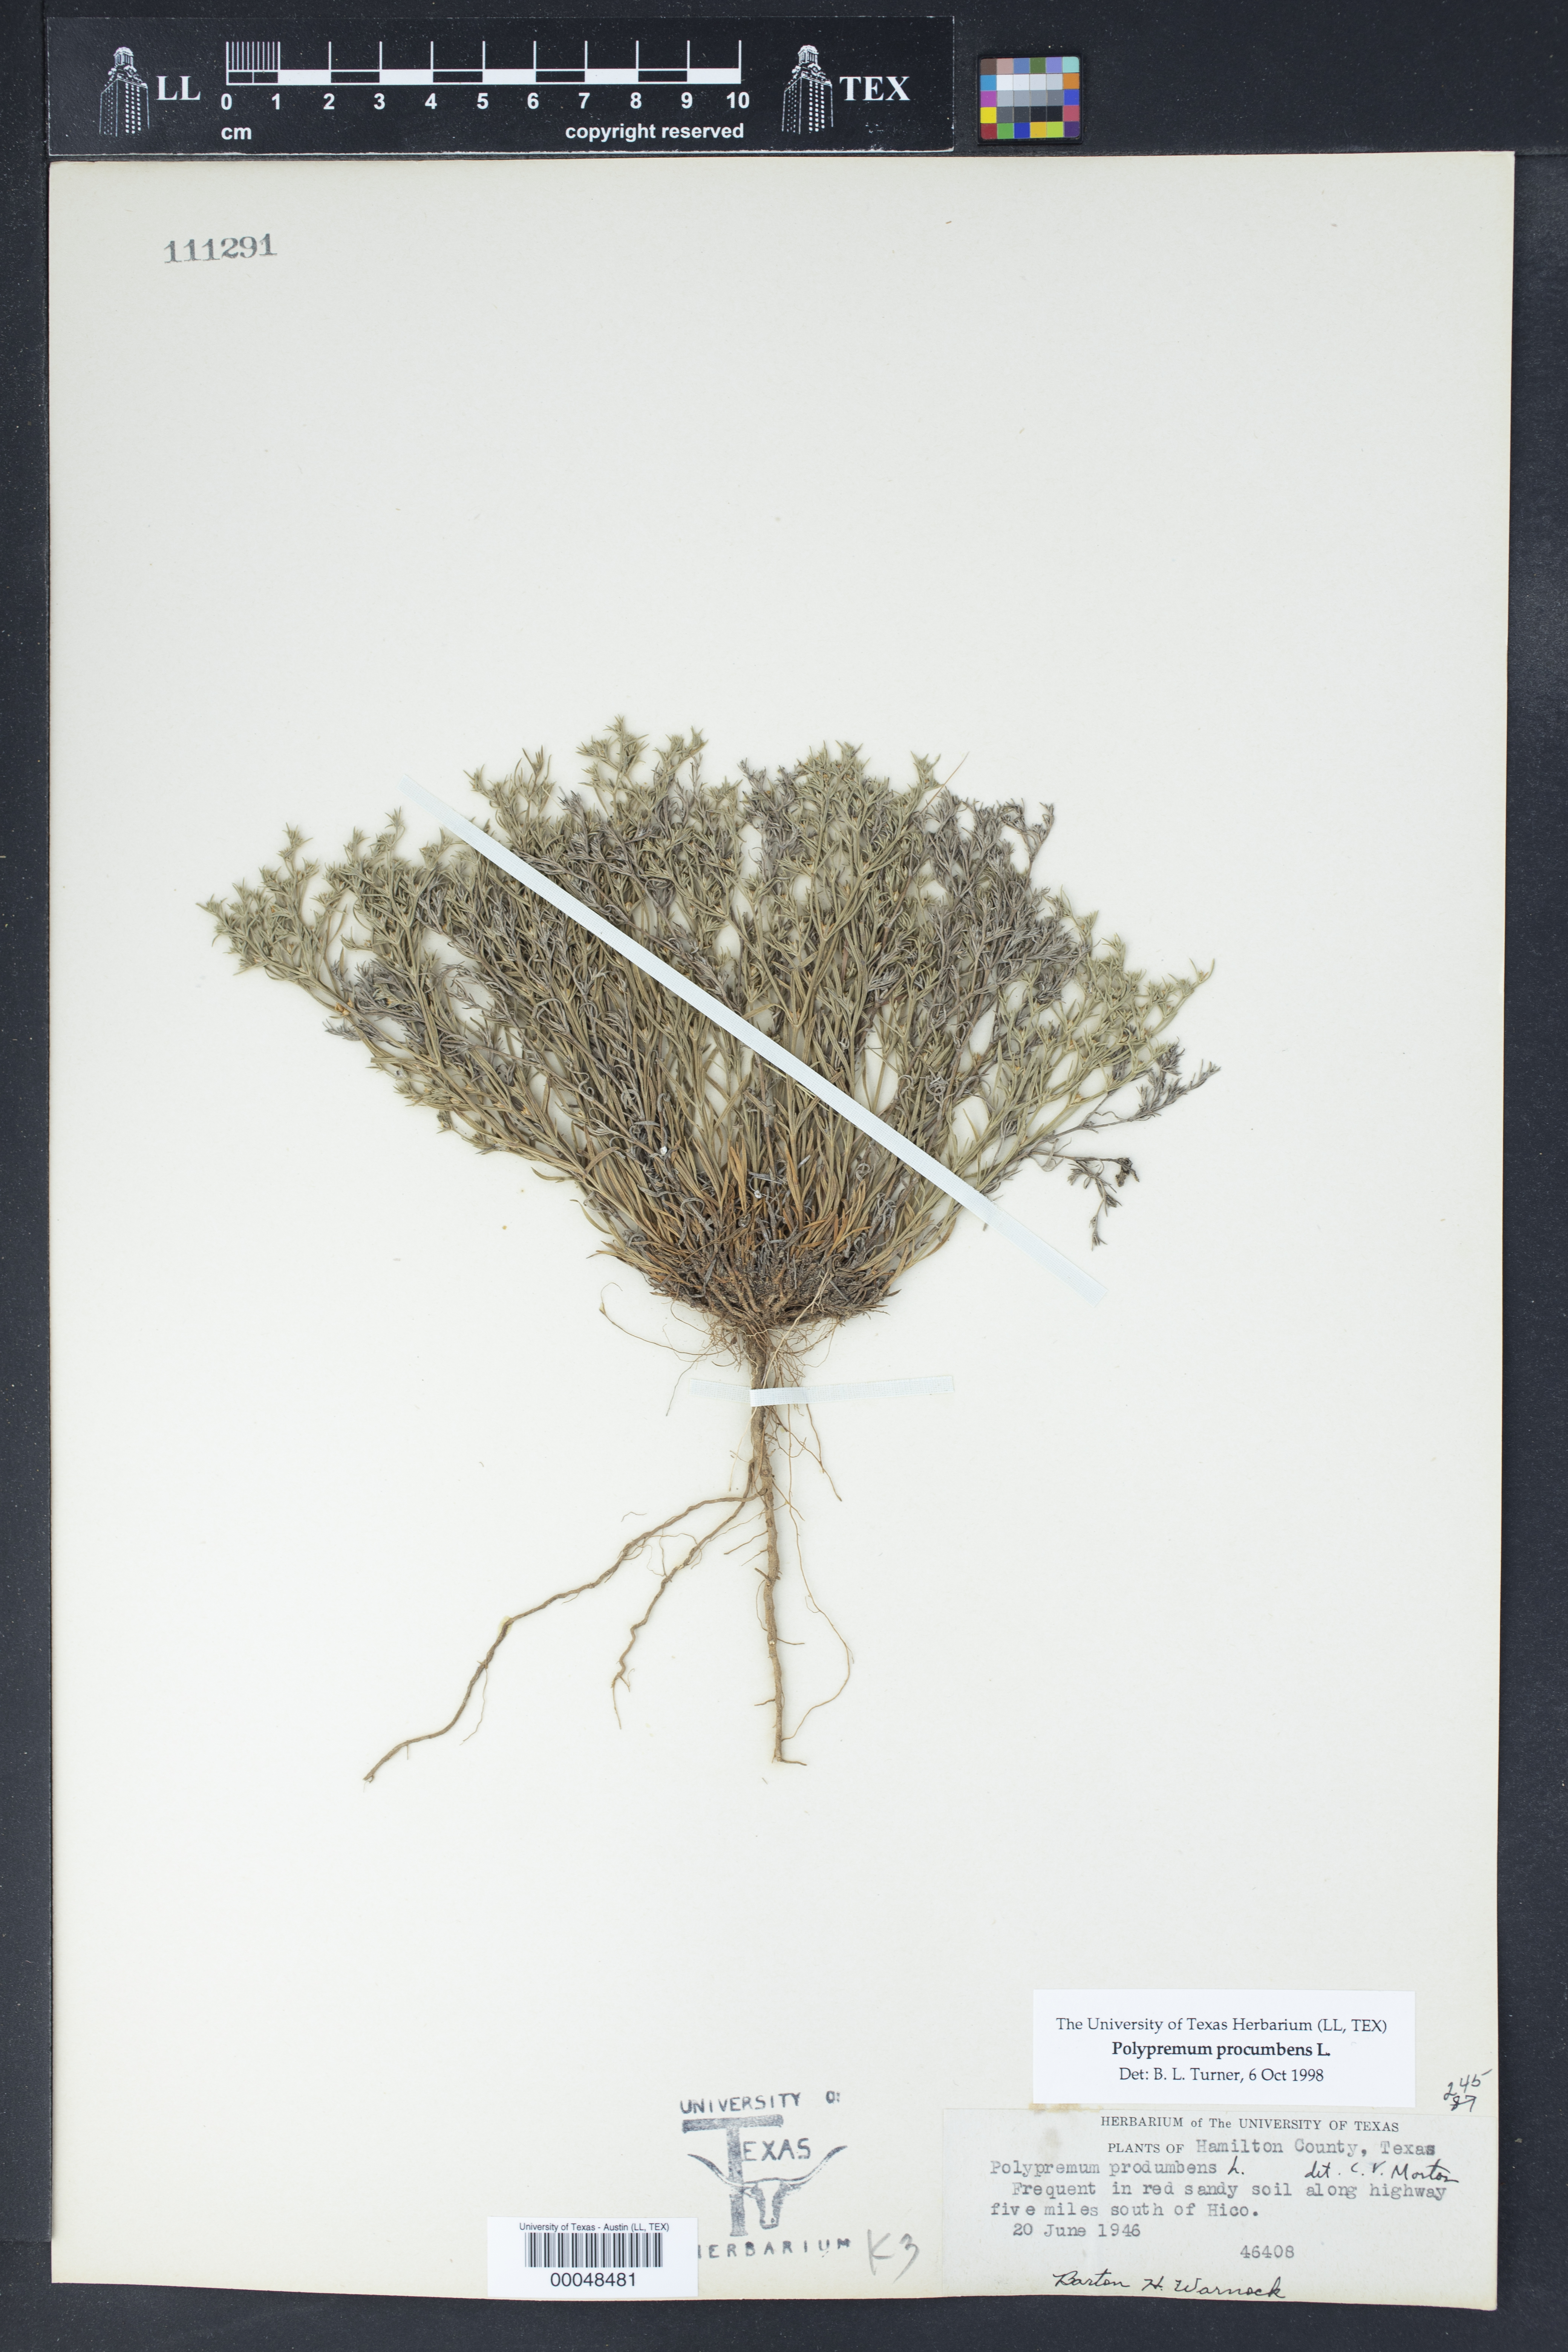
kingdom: Plantae
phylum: Tracheophyta
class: Magnoliopsida
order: Lamiales
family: Tetrachondraceae
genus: Polypremum
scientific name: Polypremum procumbens
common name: Juniper-leaf
